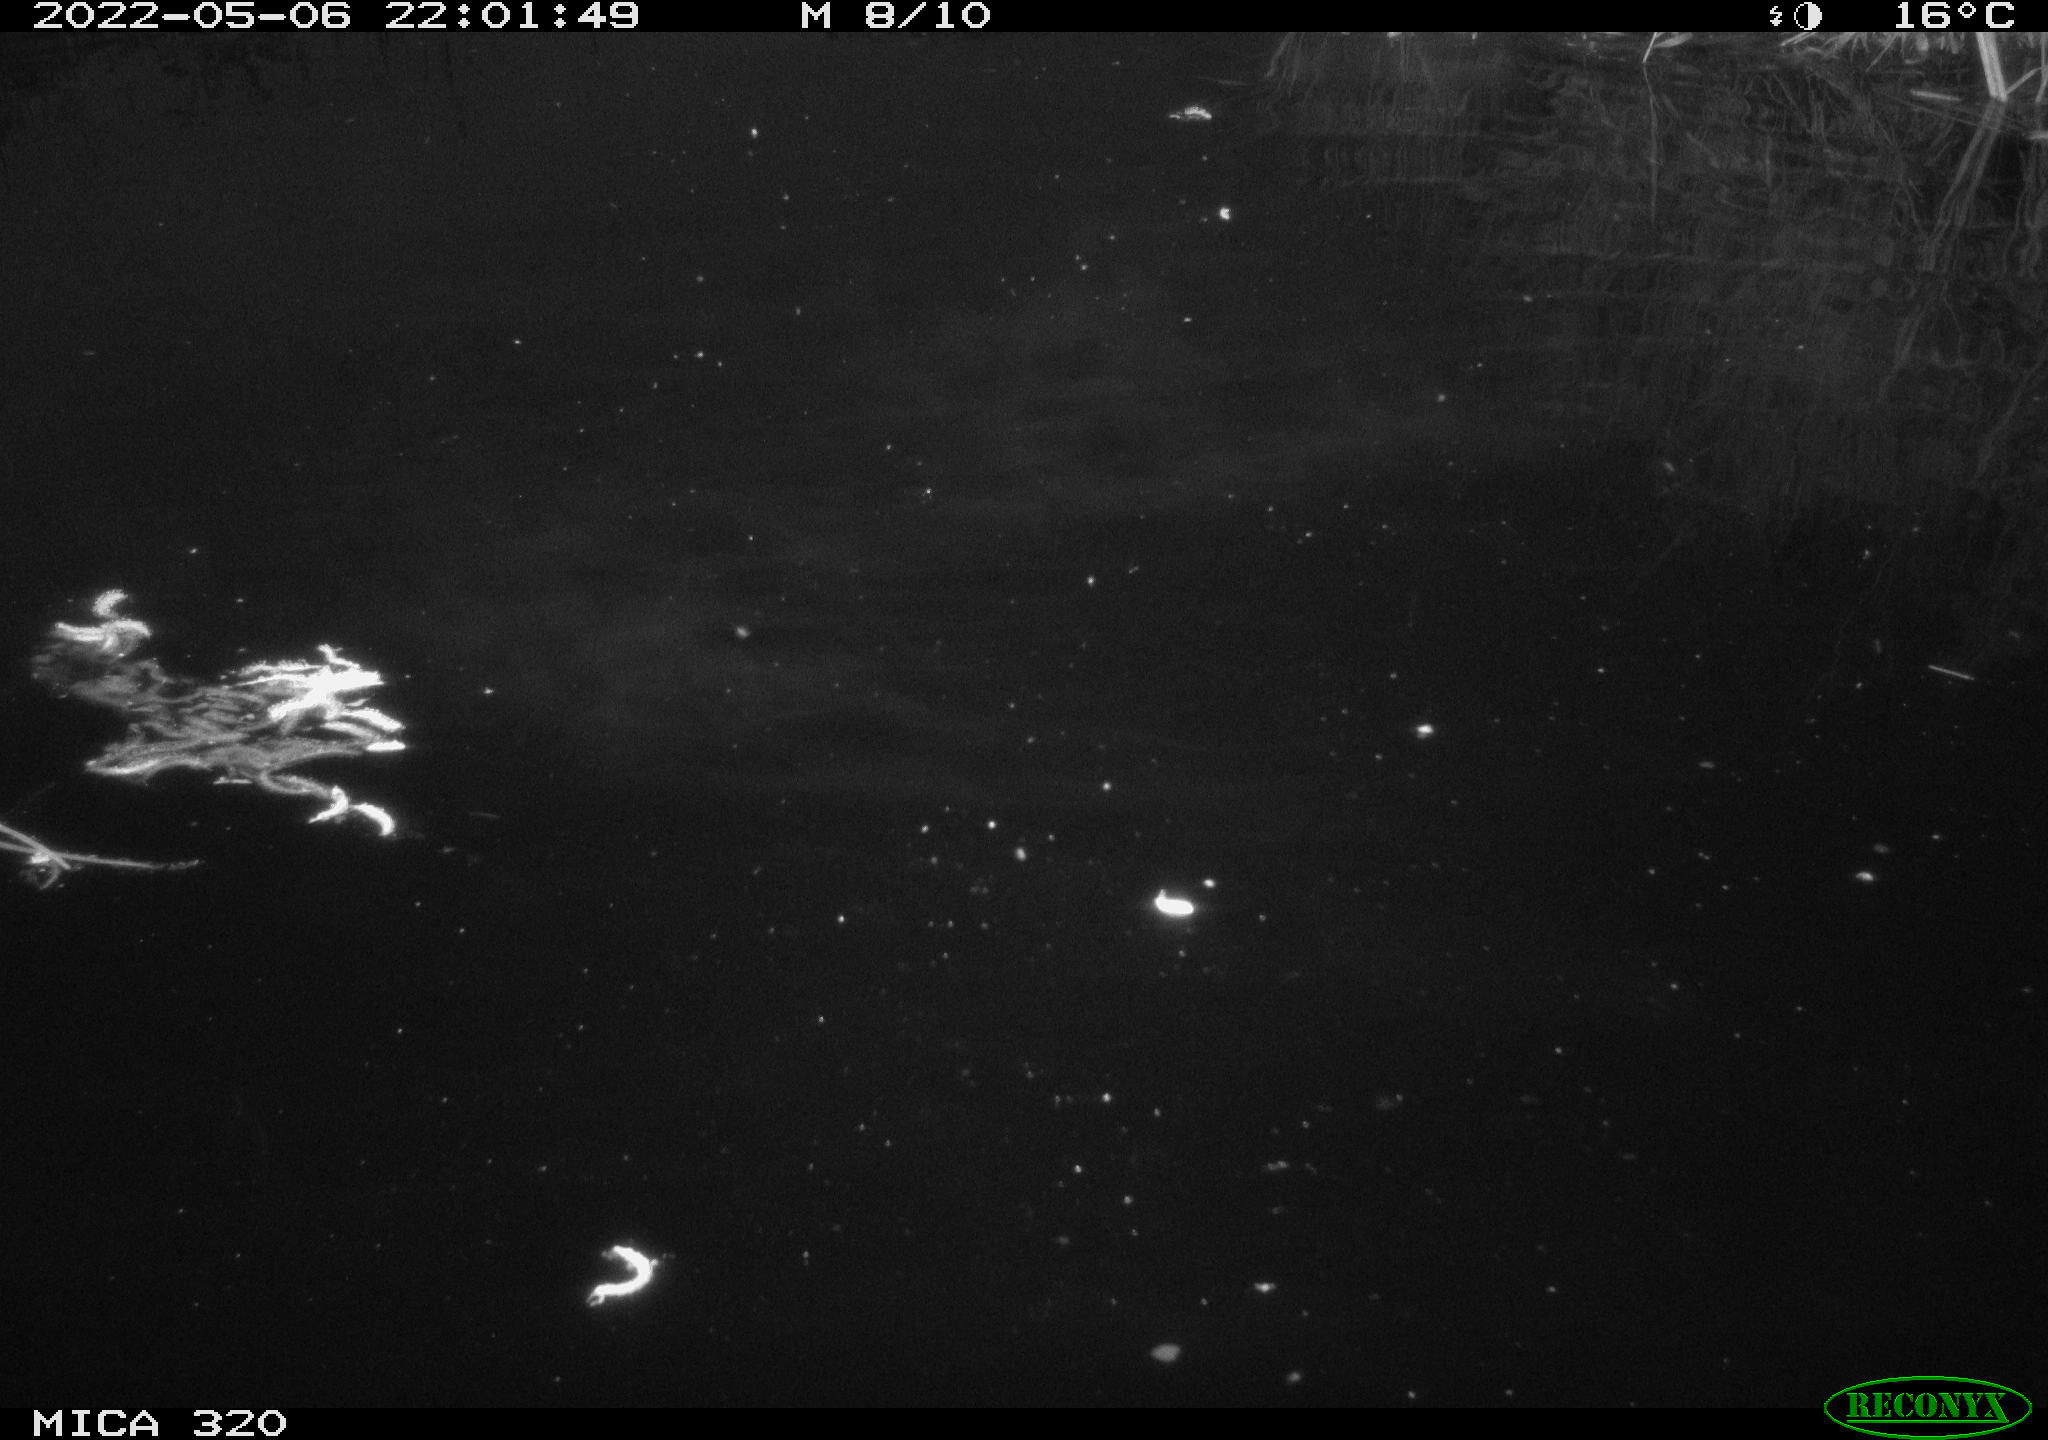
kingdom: Animalia
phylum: Chordata
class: Aves
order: Anseriformes
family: Anatidae
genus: Mareca
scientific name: Mareca strepera
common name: Gadwall
